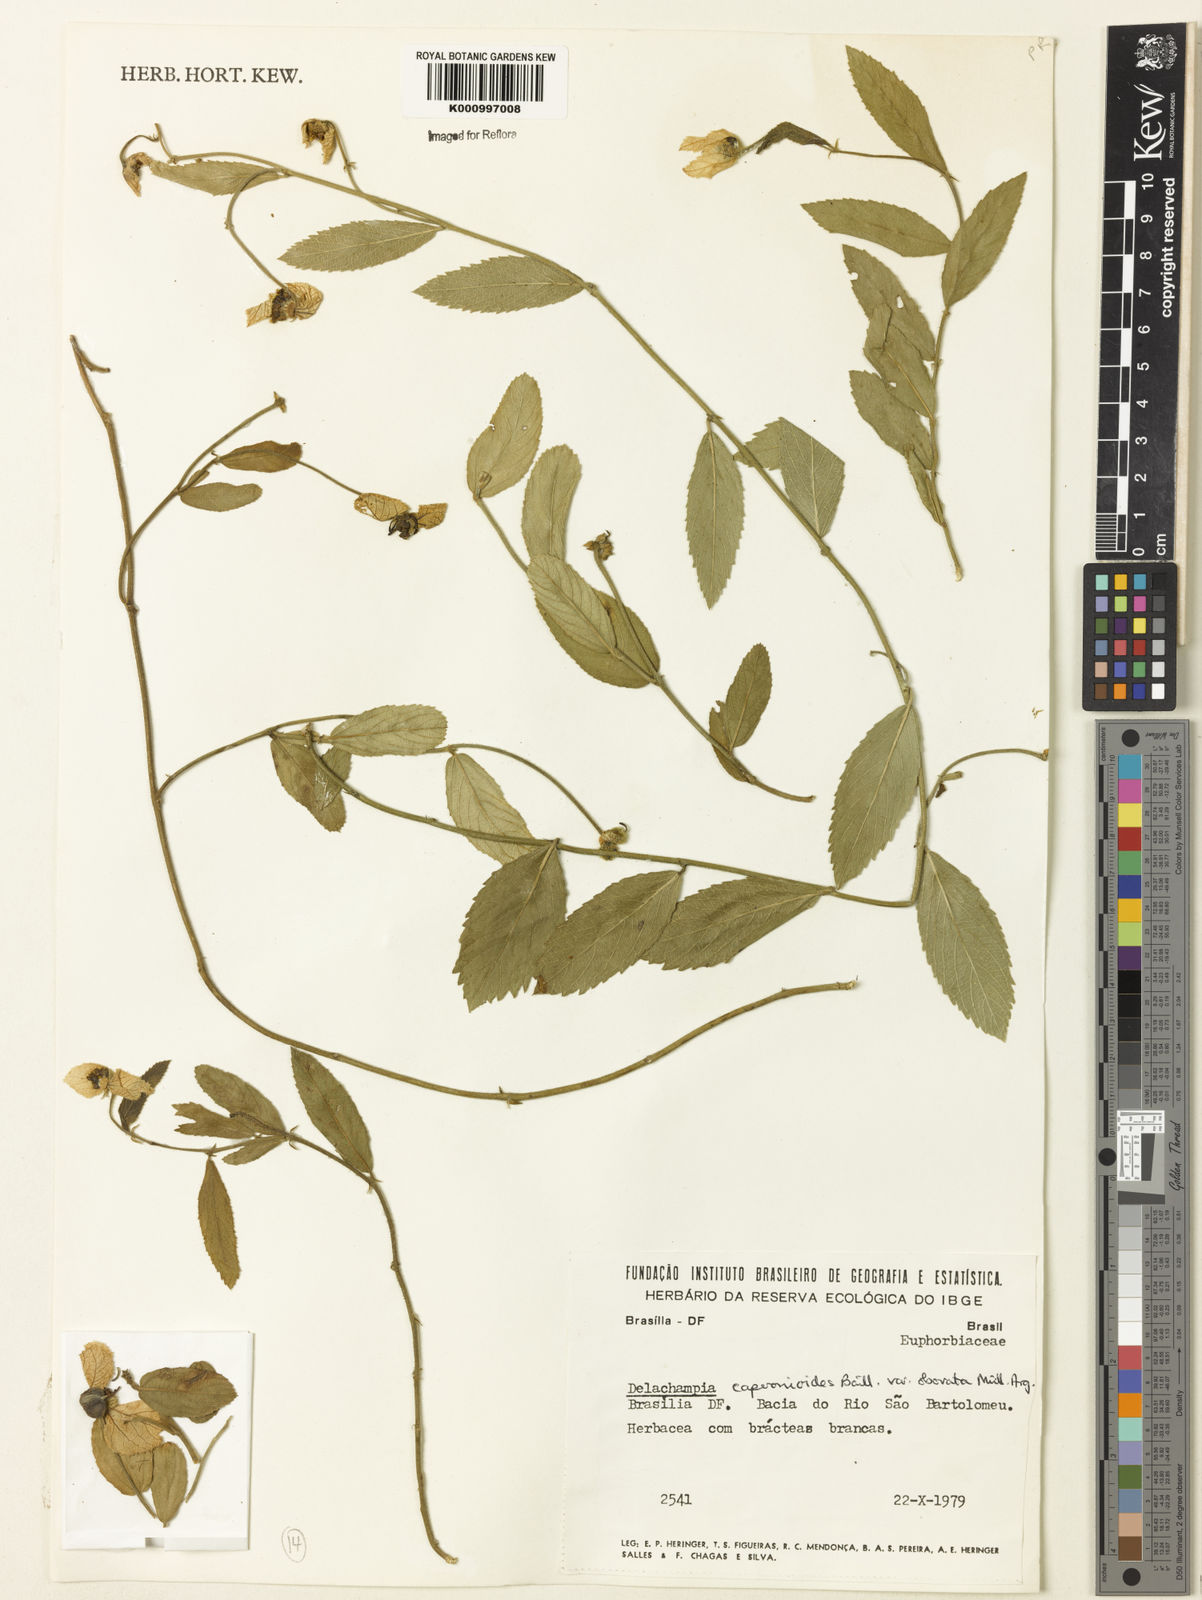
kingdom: Plantae
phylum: Tracheophyta
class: Magnoliopsida
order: Malpighiales
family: Euphorbiaceae
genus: Dalechampia
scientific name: Dalechampia caperonioides
